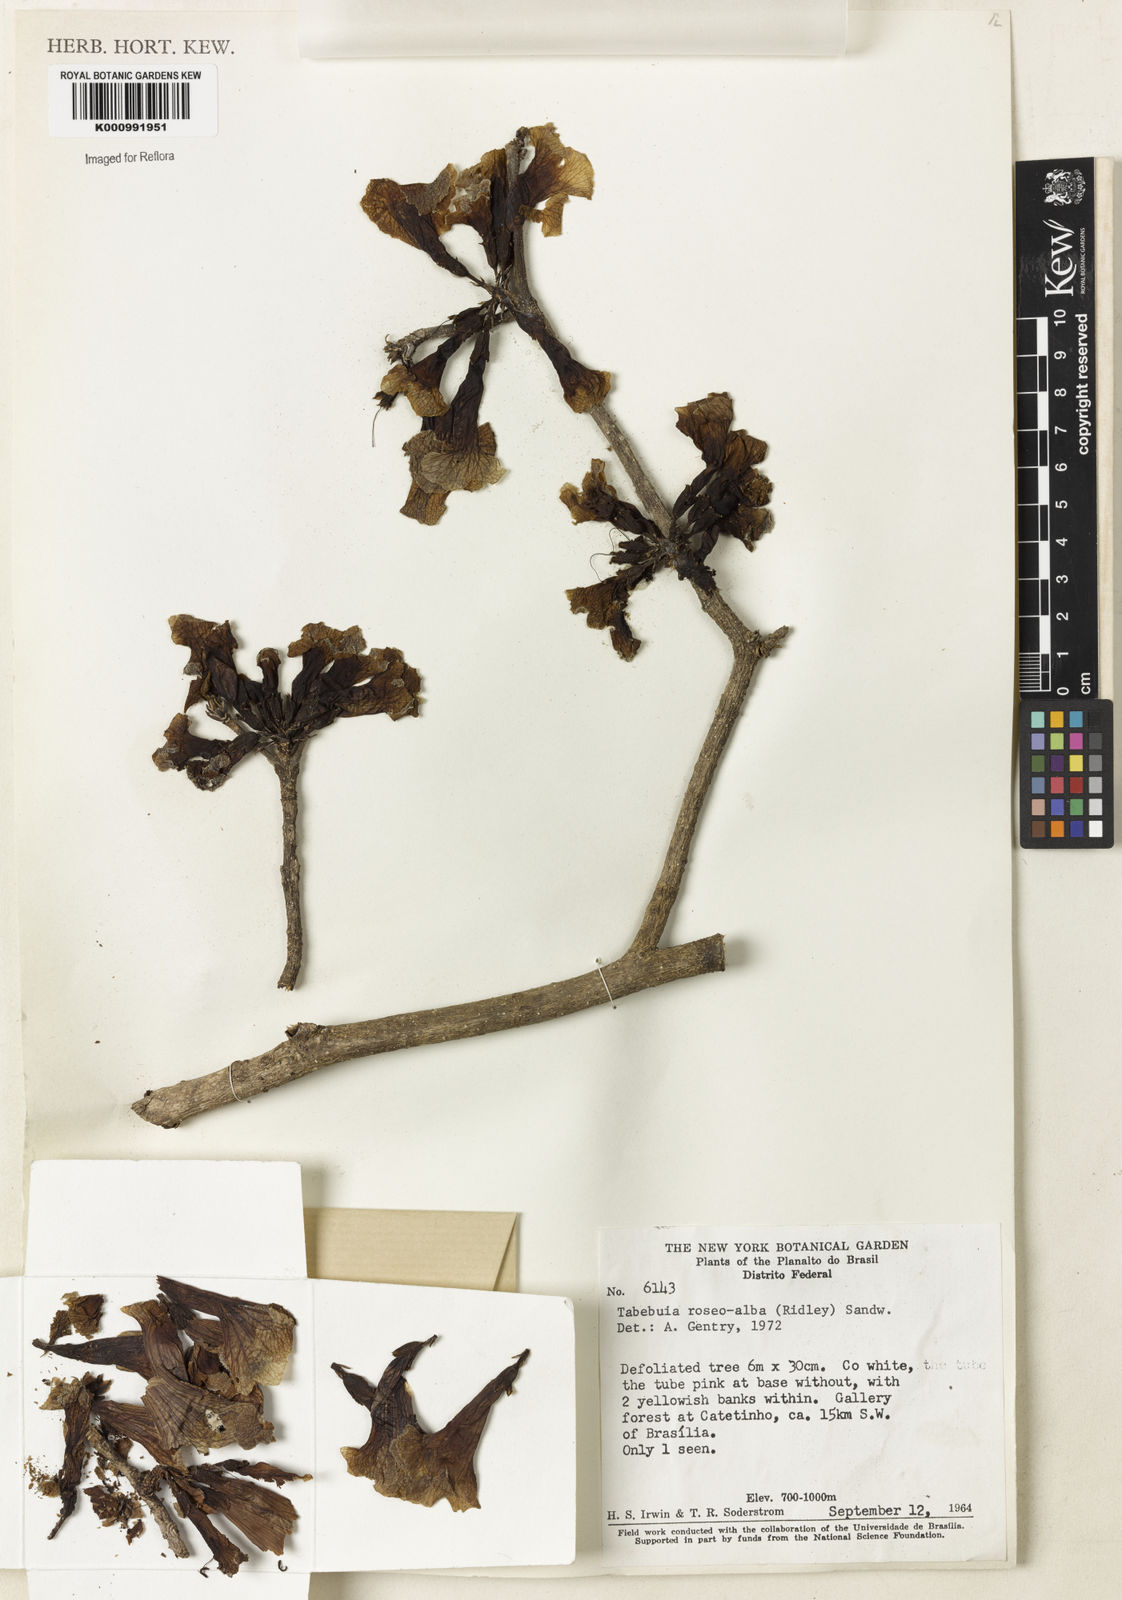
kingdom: Plantae
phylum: Tracheophyta
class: Magnoliopsida
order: Lamiales
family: Bignoniaceae
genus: Tabebuia
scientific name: Tabebuia roseoalba
